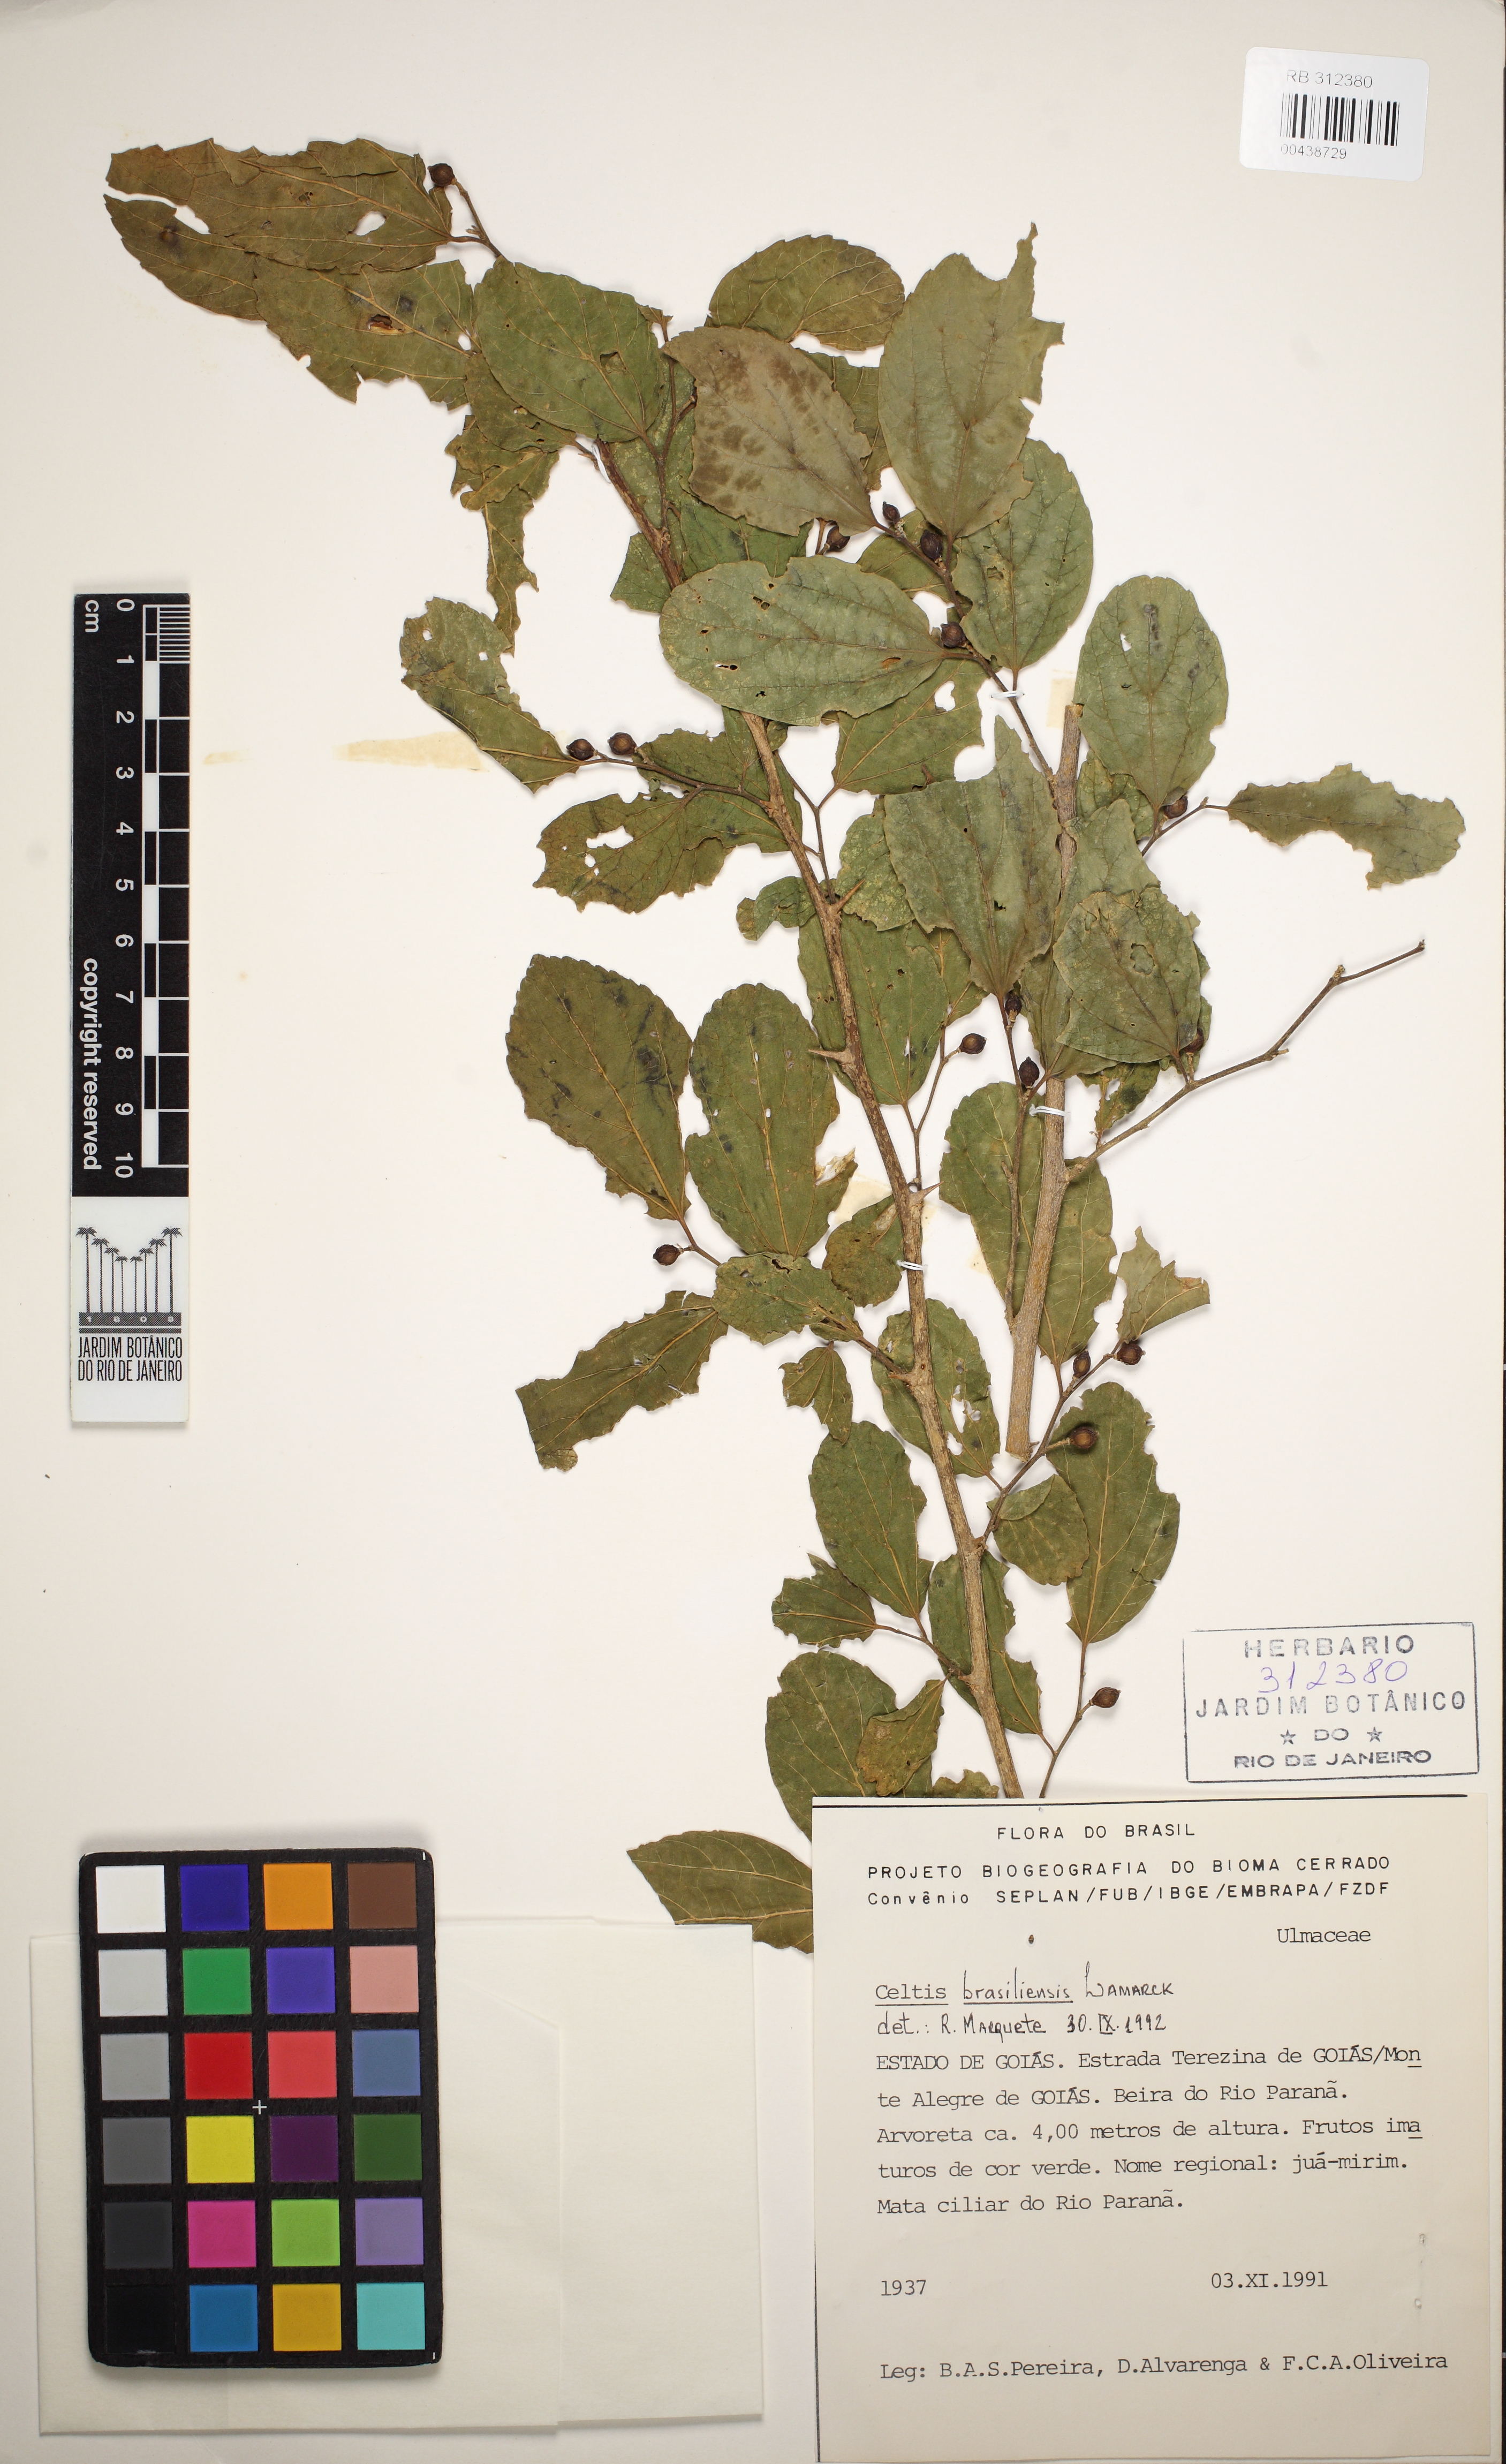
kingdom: Plantae
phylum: Tracheophyta
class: Magnoliopsida
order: Rosales
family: Cannabaceae
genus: Celtis
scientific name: Celtis brasiliensis
